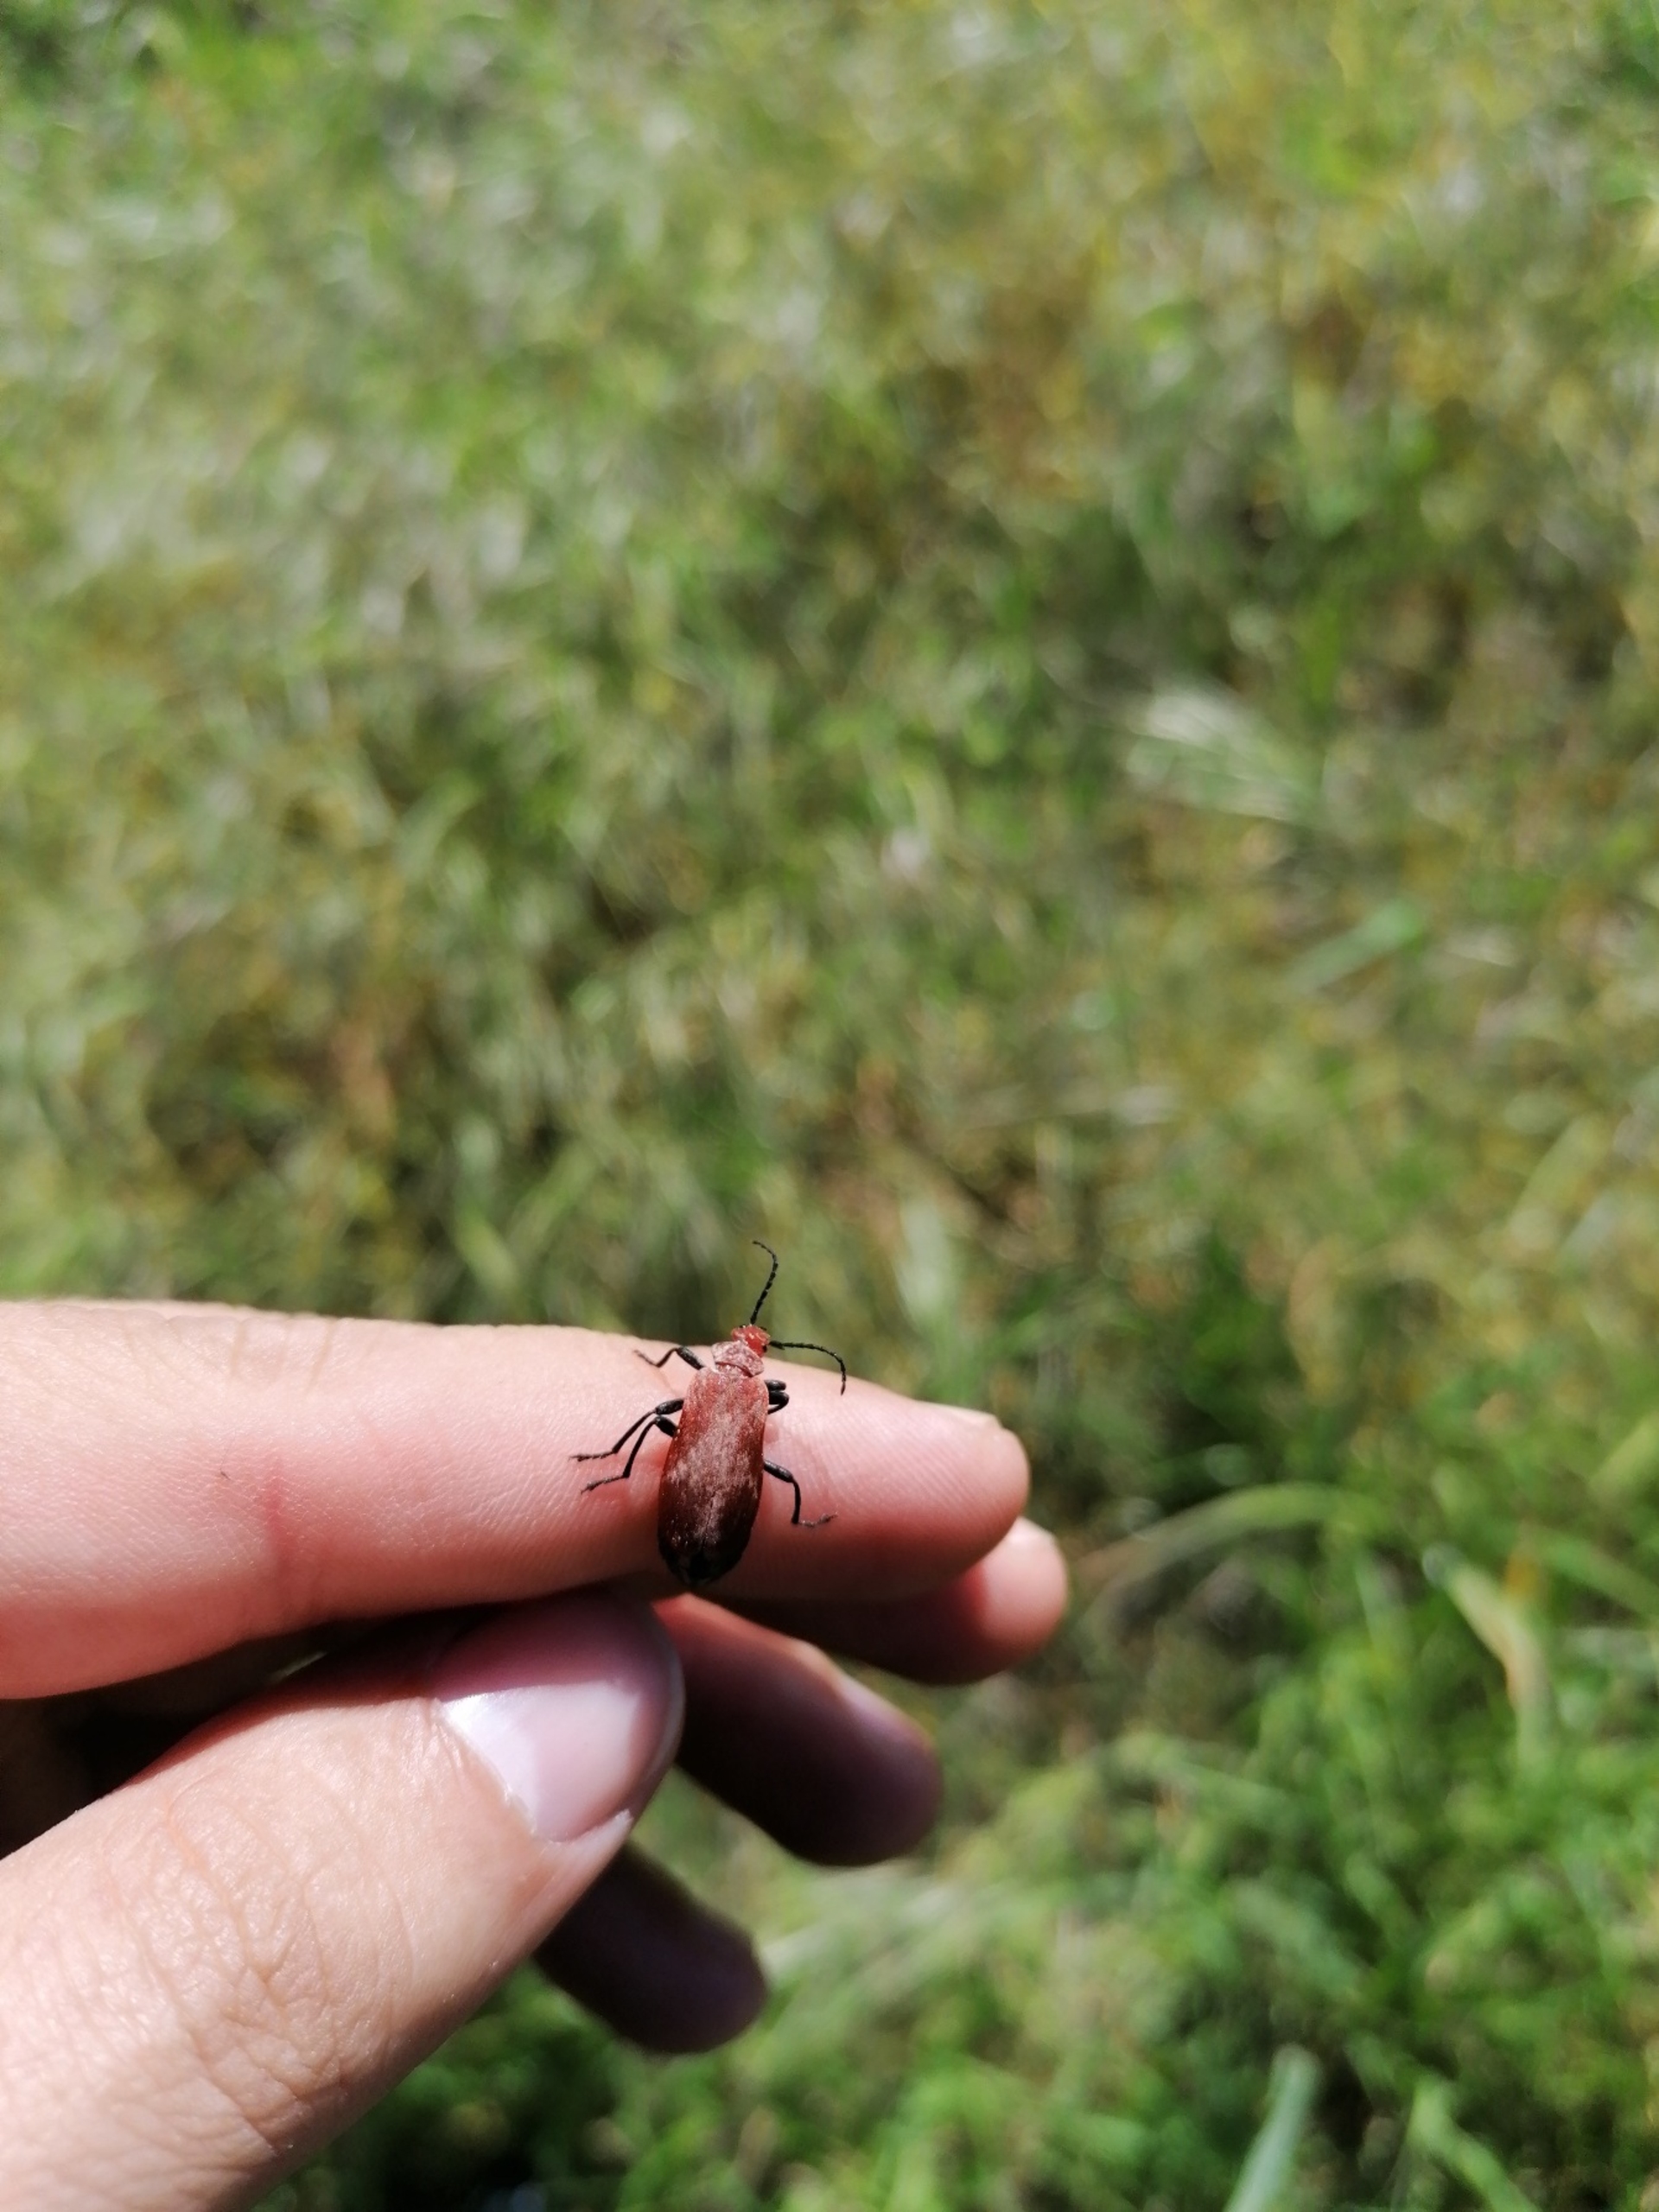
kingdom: Animalia
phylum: Arthropoda
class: Insecta
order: Coleoptera
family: Pyrochroidae
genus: Pyrochroa
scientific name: Pyrochroa serraticornis
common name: Rødhovedet kardinalbille
